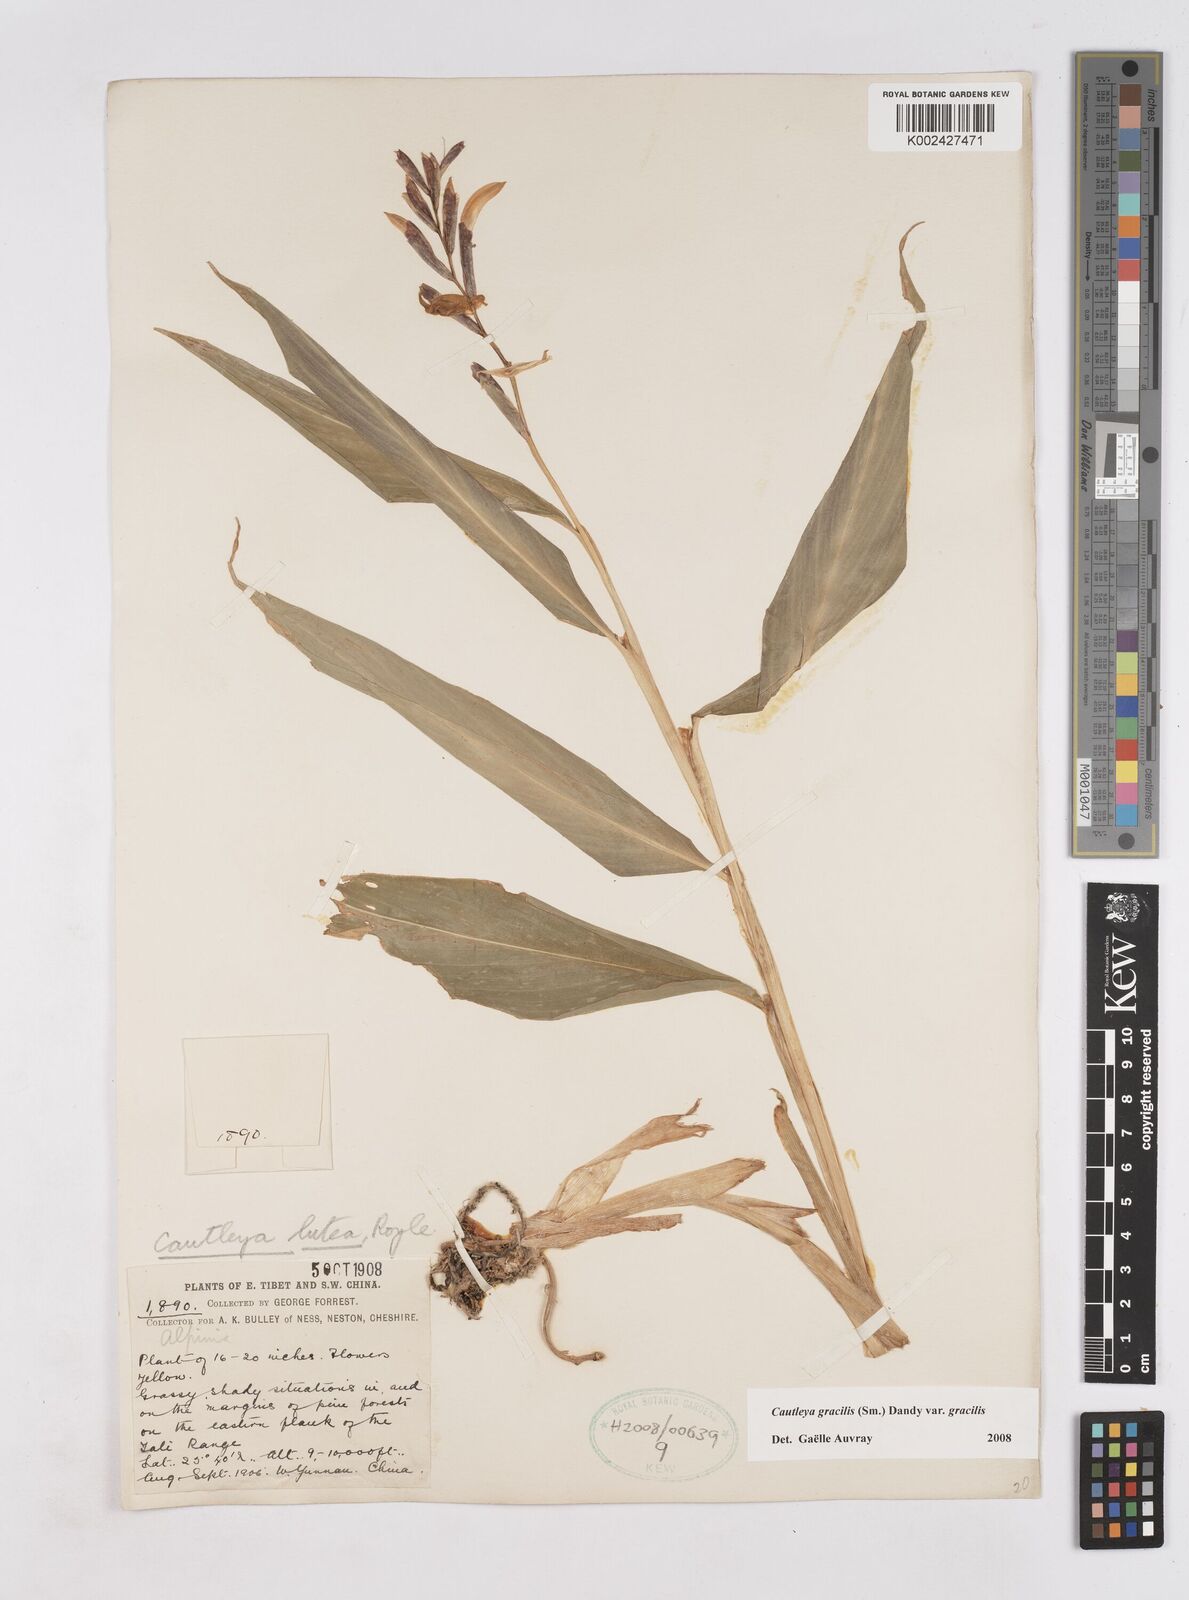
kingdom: Plantae
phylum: Tracheophyta
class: Liliopsida
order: Zingiberales
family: Zingiberaceae
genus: Cautleya
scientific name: Cautleya gracilis
